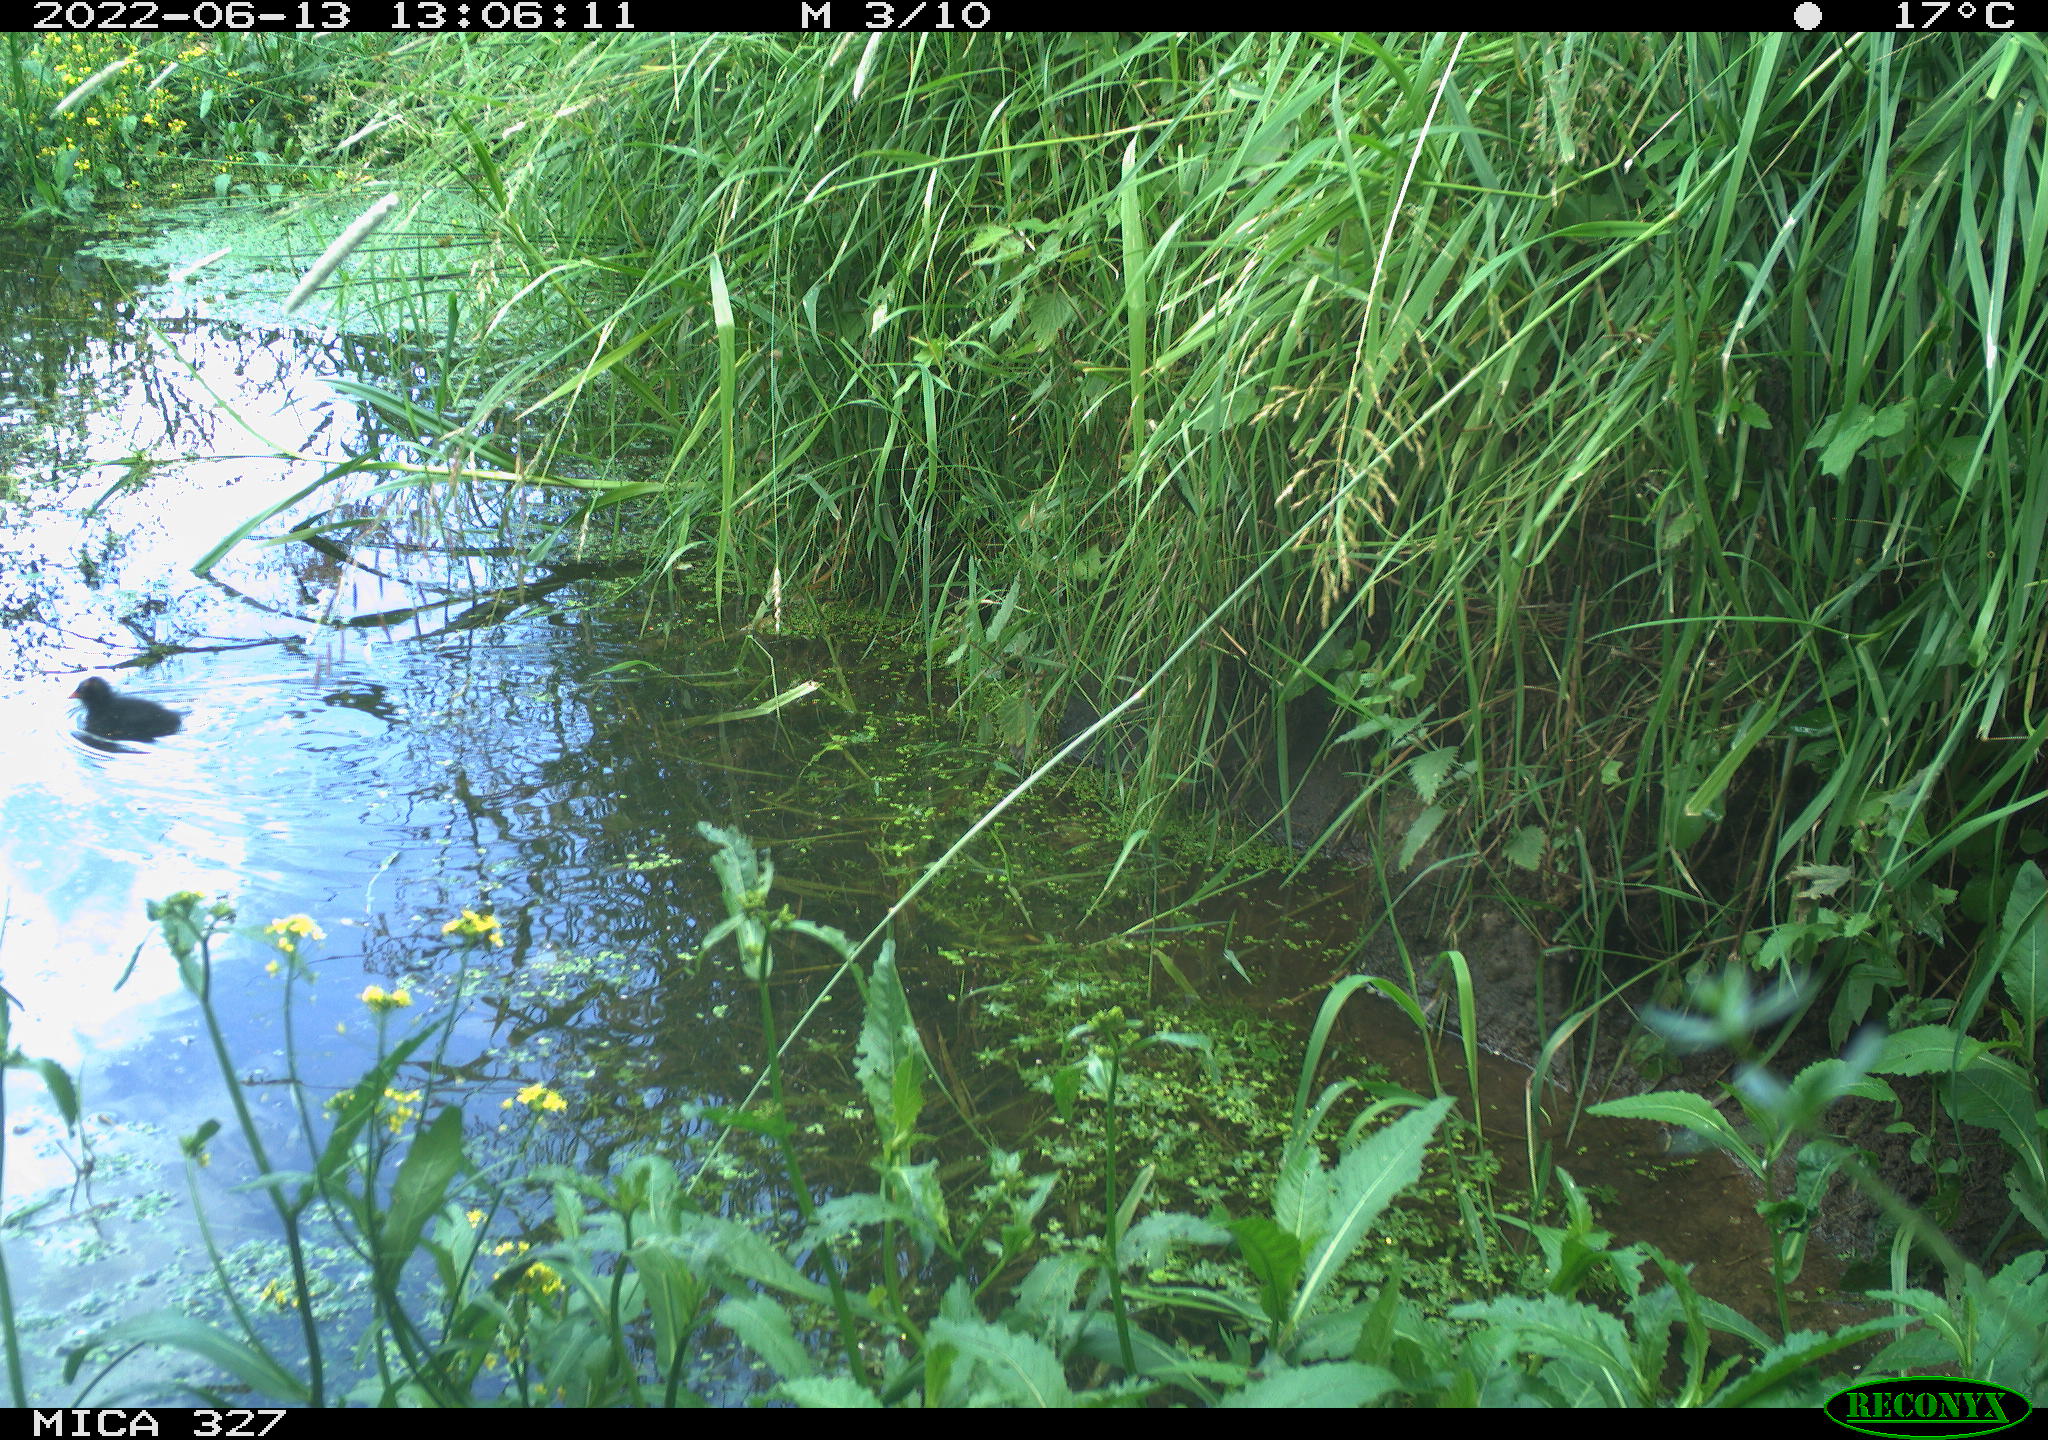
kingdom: Animalia
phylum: Chordata
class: Aves
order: Gruiformes
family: Rallidae
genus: Gallinula
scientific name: Gallinula chloropus
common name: Common moorhen
